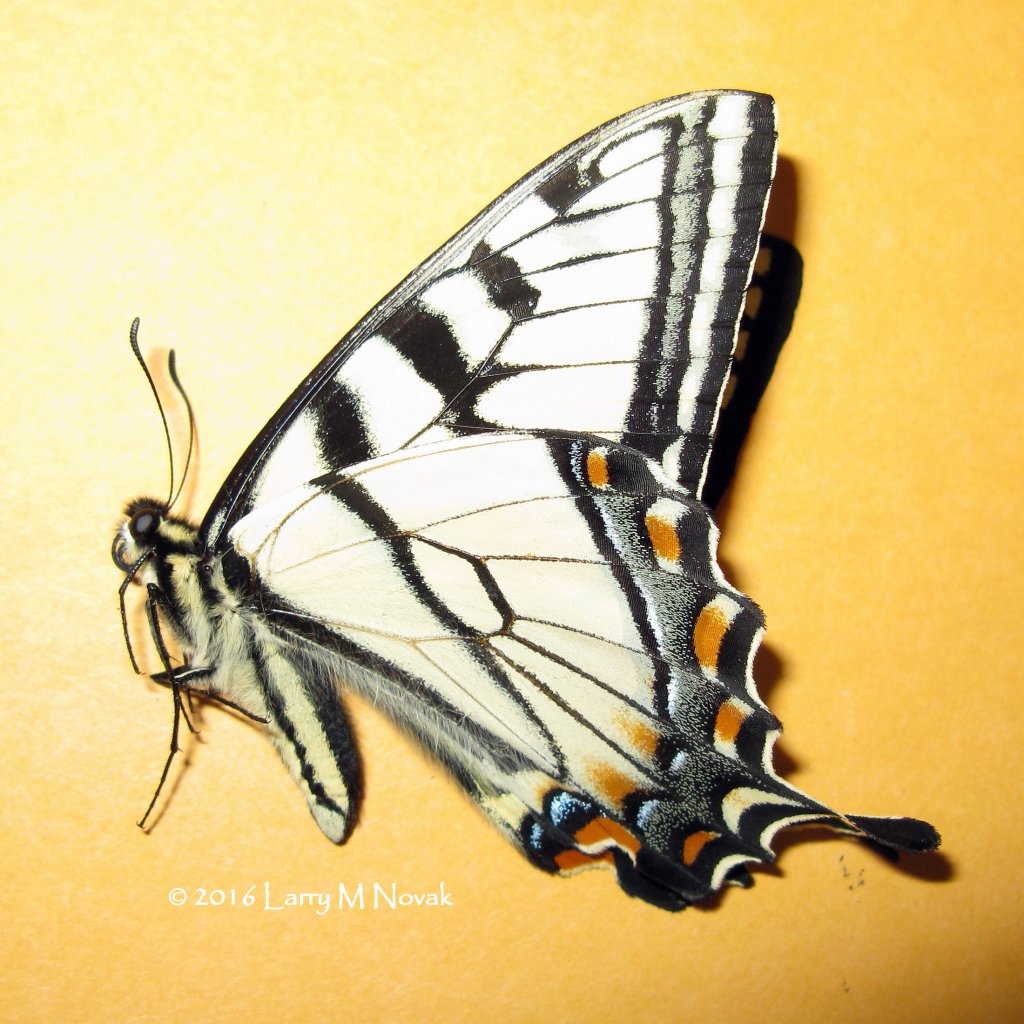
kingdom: Animalia
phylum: Arthropoda
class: Insecta
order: Lepidoptera
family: Papilionidae
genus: Pterourus
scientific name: Pterourus canadensis
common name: Canadian Tiger Swallowtail
